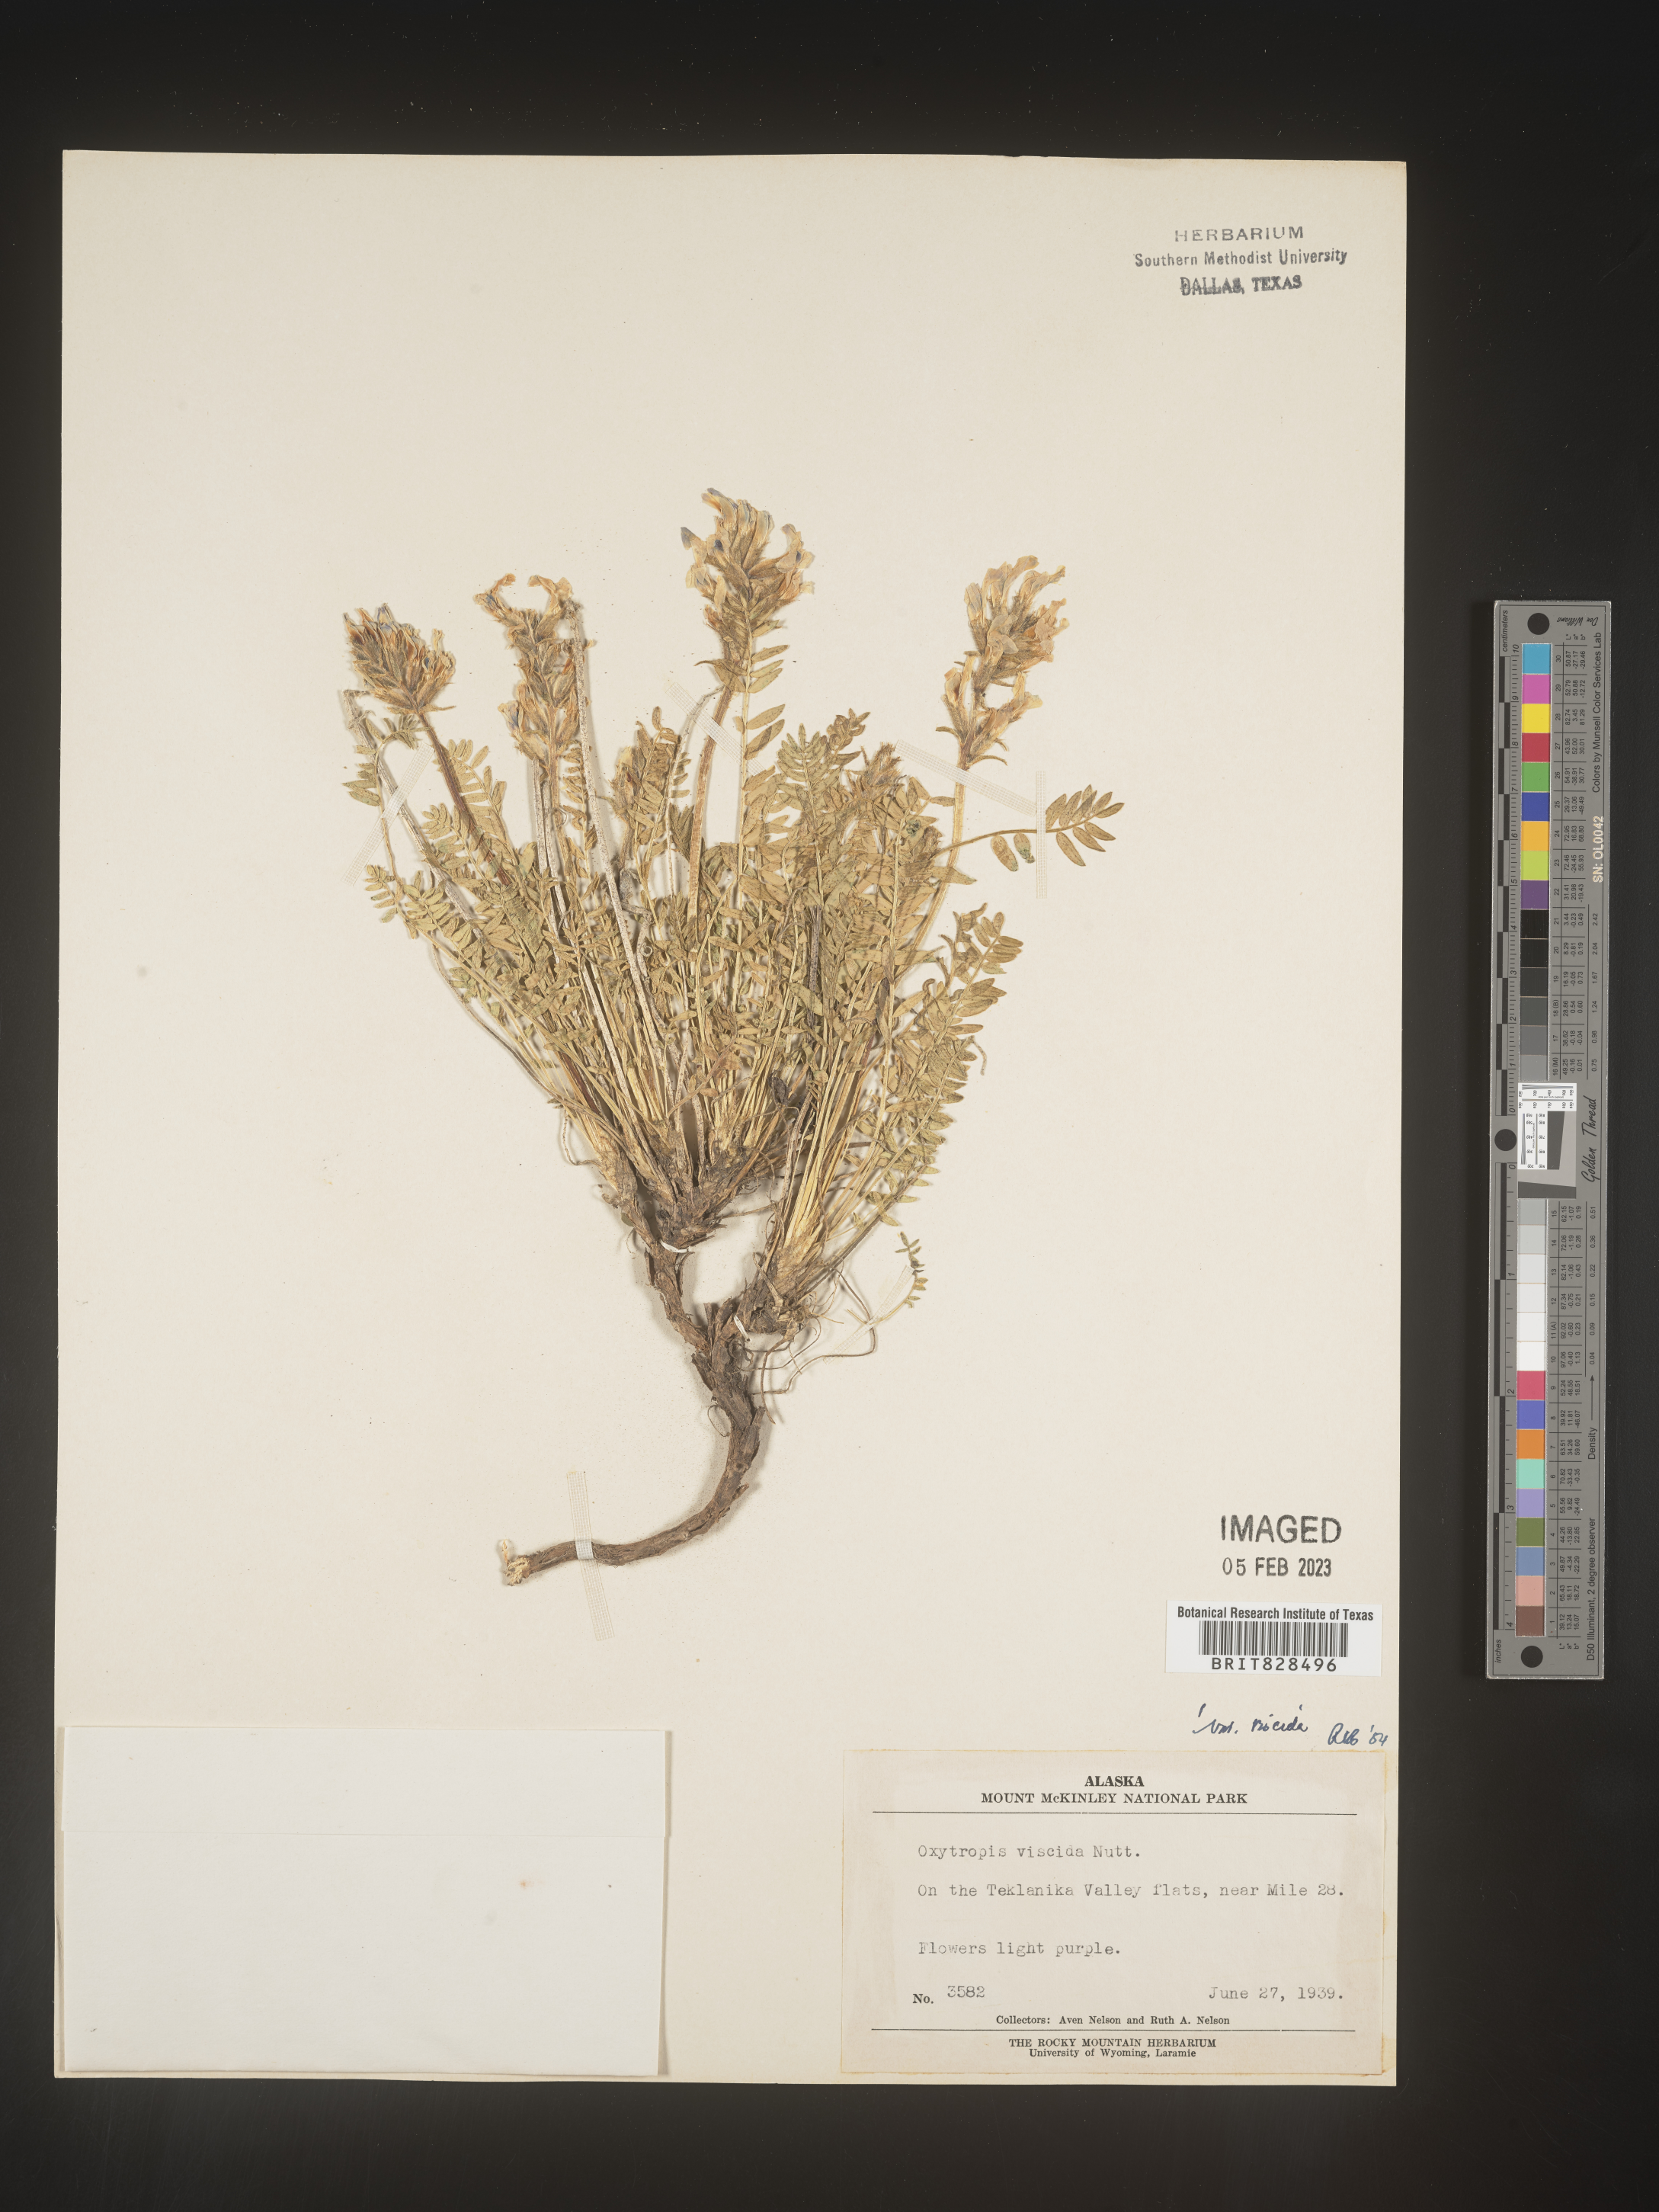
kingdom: Plantae
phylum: Tracheophyta
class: Magnoliopsida
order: Fabales
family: Fabaceae
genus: Oxytropis
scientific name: Oxytropis borealis
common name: Boreal locoweed
